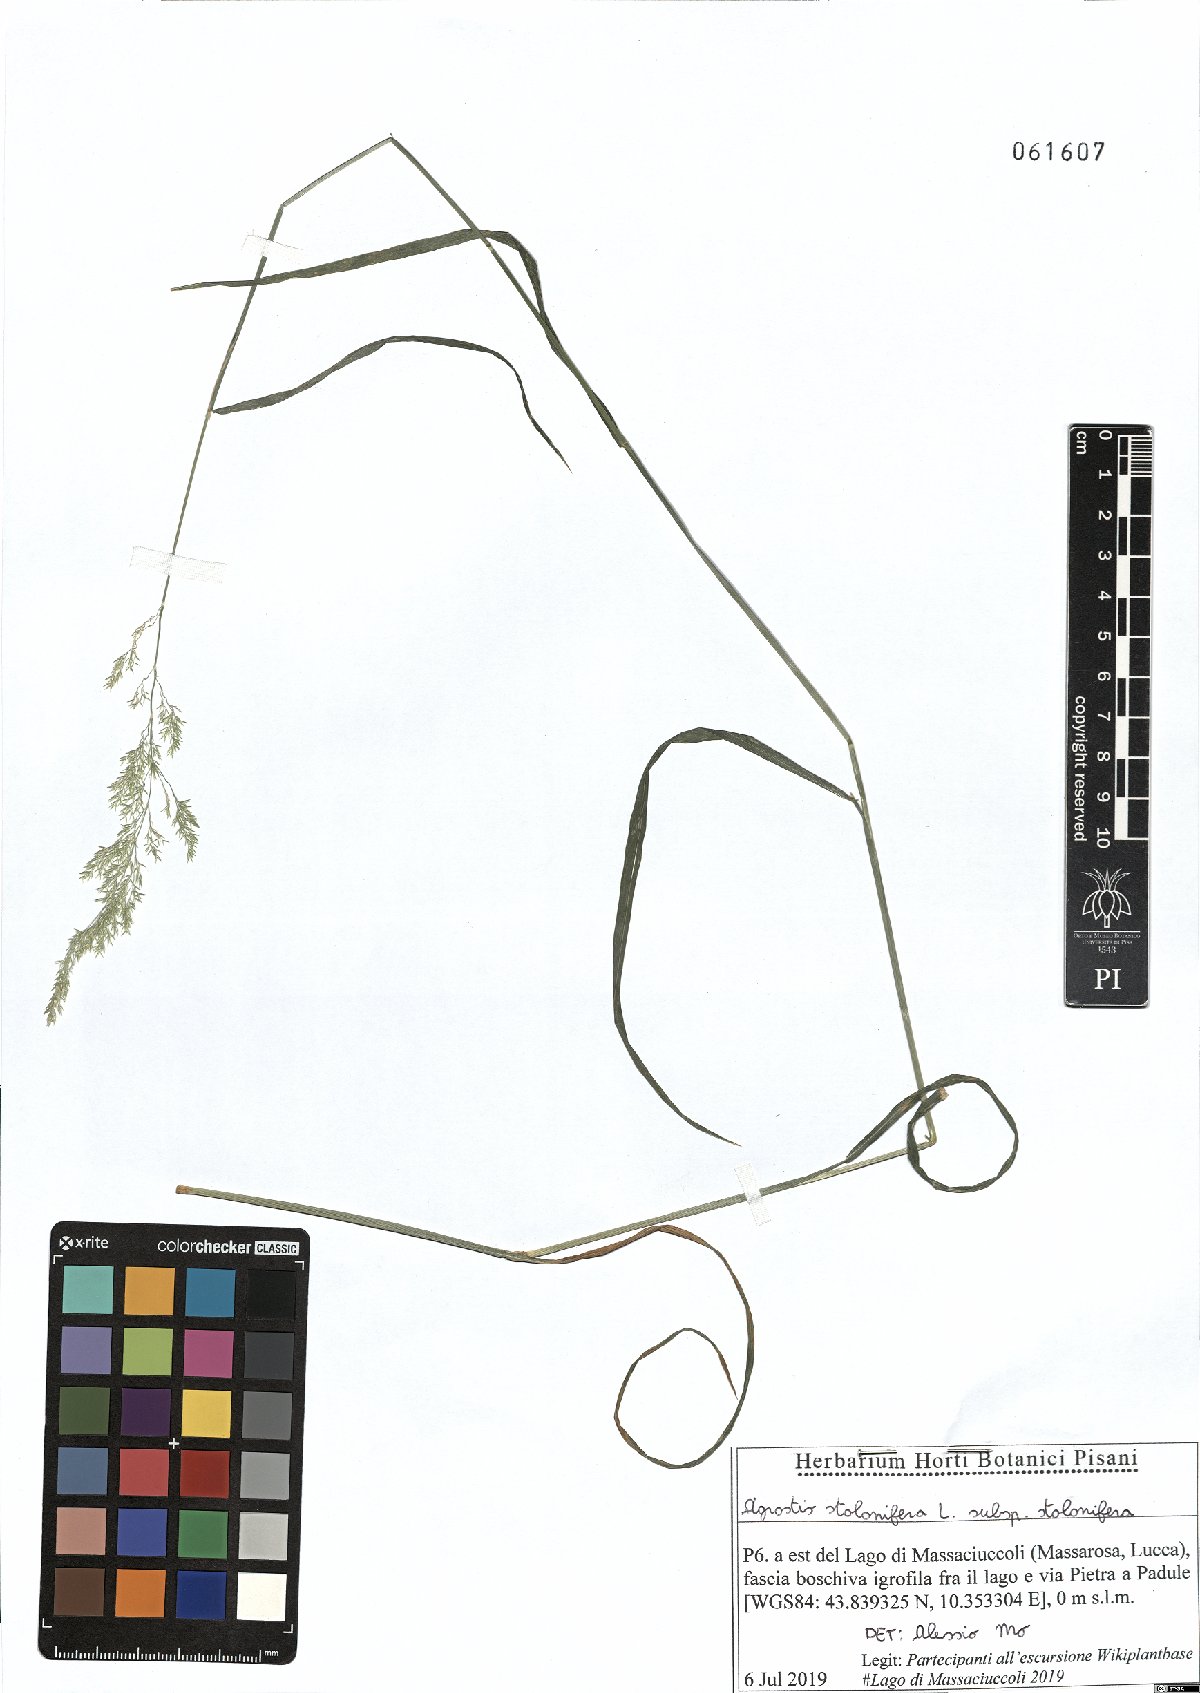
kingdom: Plantae
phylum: Tracheophyta
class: Liliopsida
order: Poales
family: Poaceae
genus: Agrostis
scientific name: Agrostis stolonifera
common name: Creeping bentgrass
